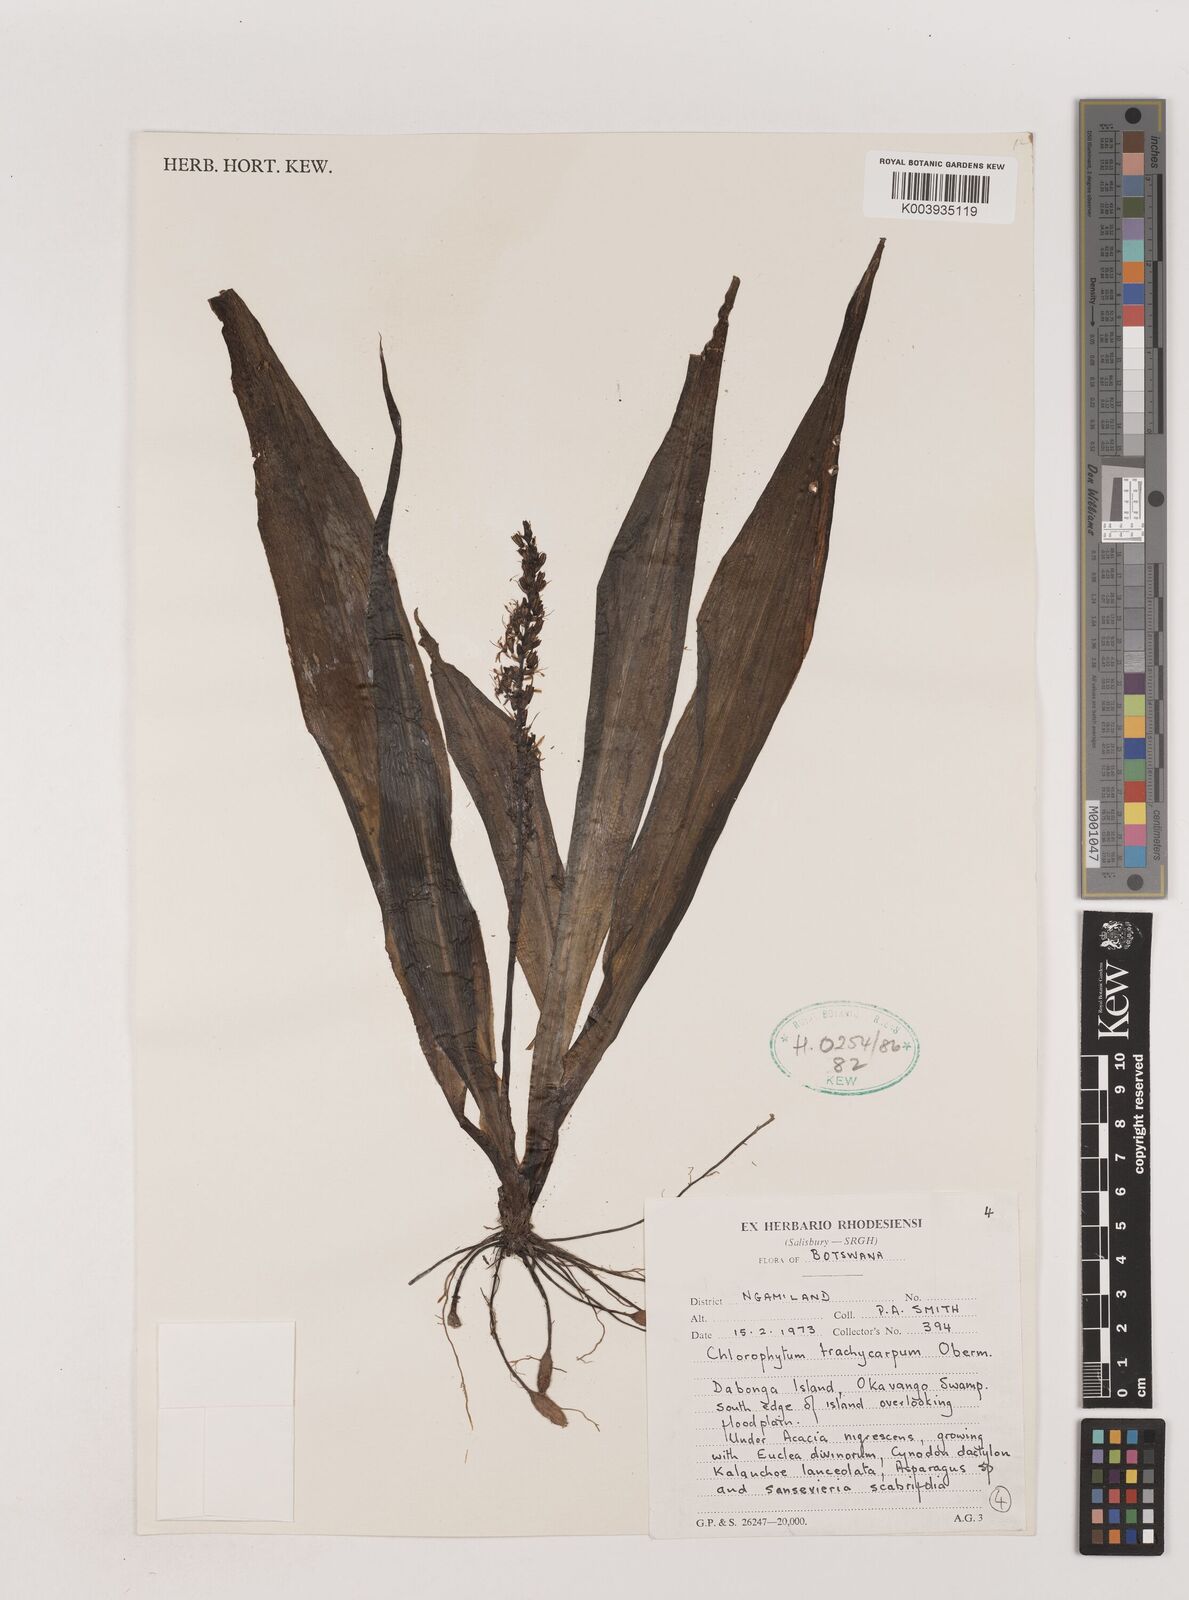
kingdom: Plantae
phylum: Tracheophyta
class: Liliopsida
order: Asparagales
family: Asparagaceae
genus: Chlorophytum
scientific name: Chlorophytum brachystachyum
